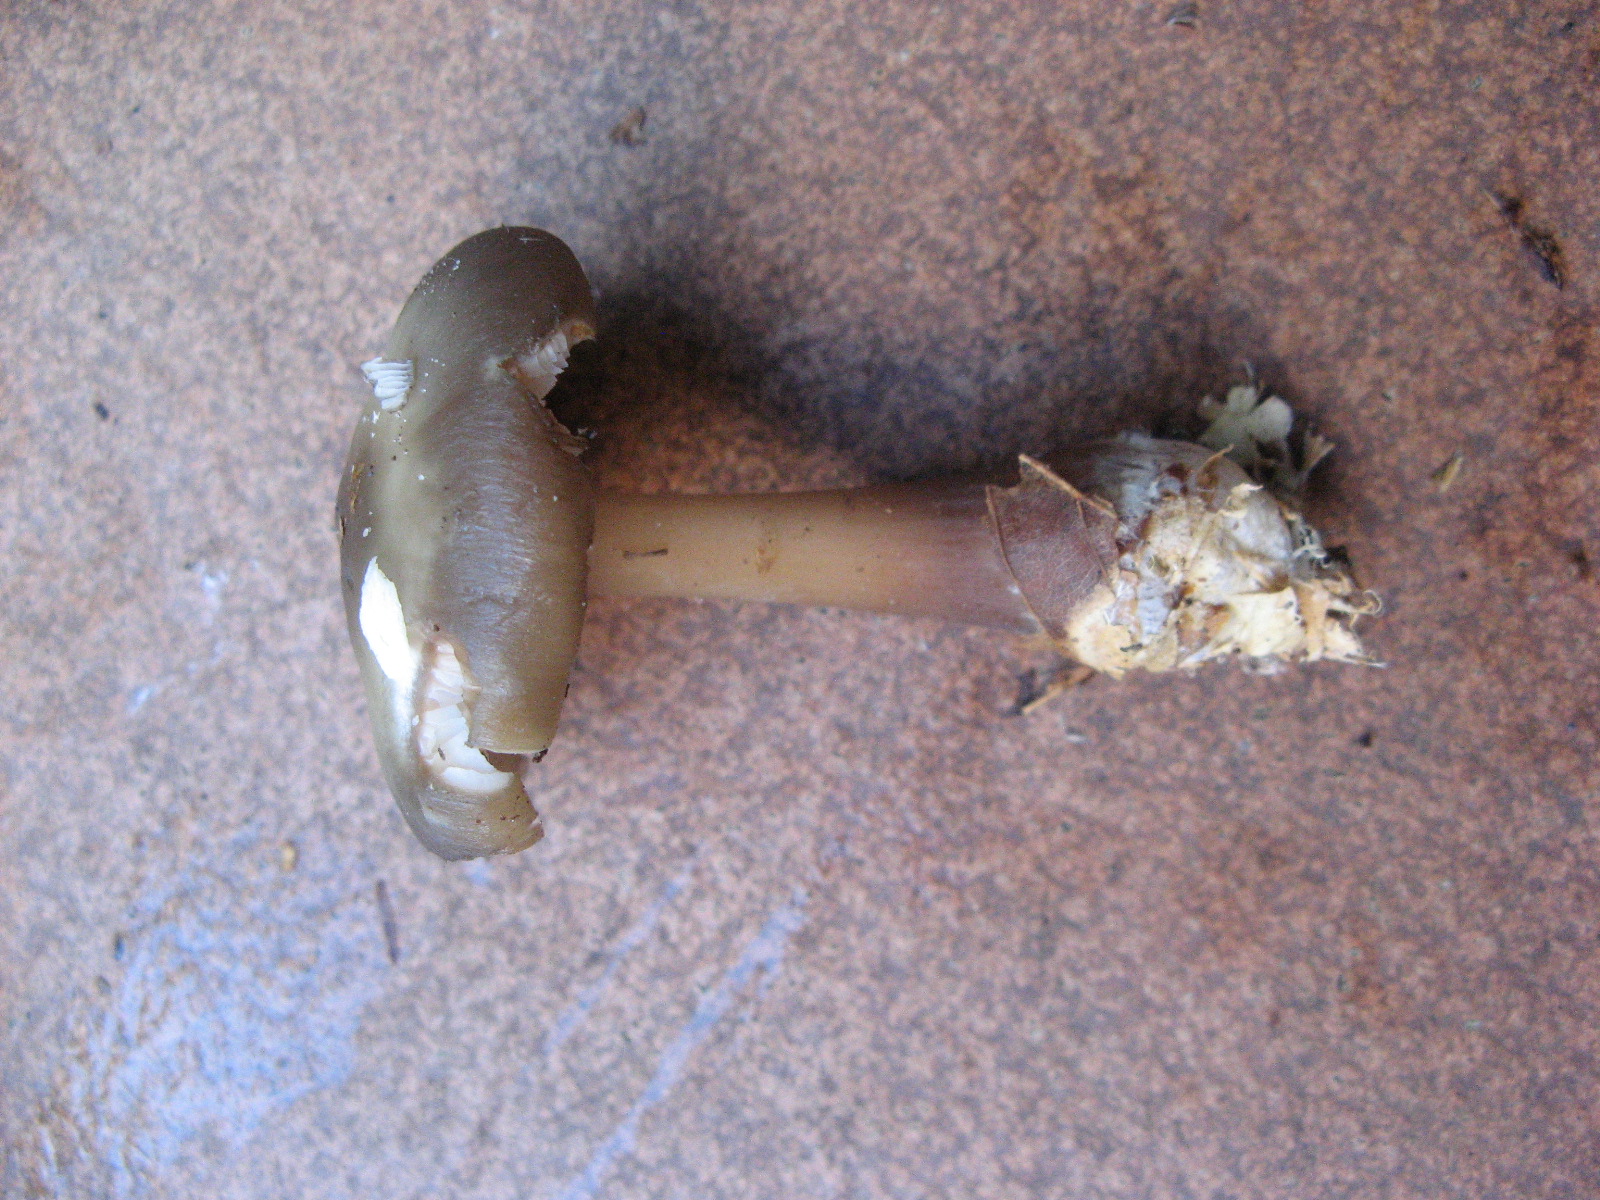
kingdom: Fungi
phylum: Basidiomycota
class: Agaricomycetes
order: Agaricales
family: Omphalotaceae
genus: Rhodocollybia
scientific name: Rhodocollybia asema
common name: horngrå fladhat
